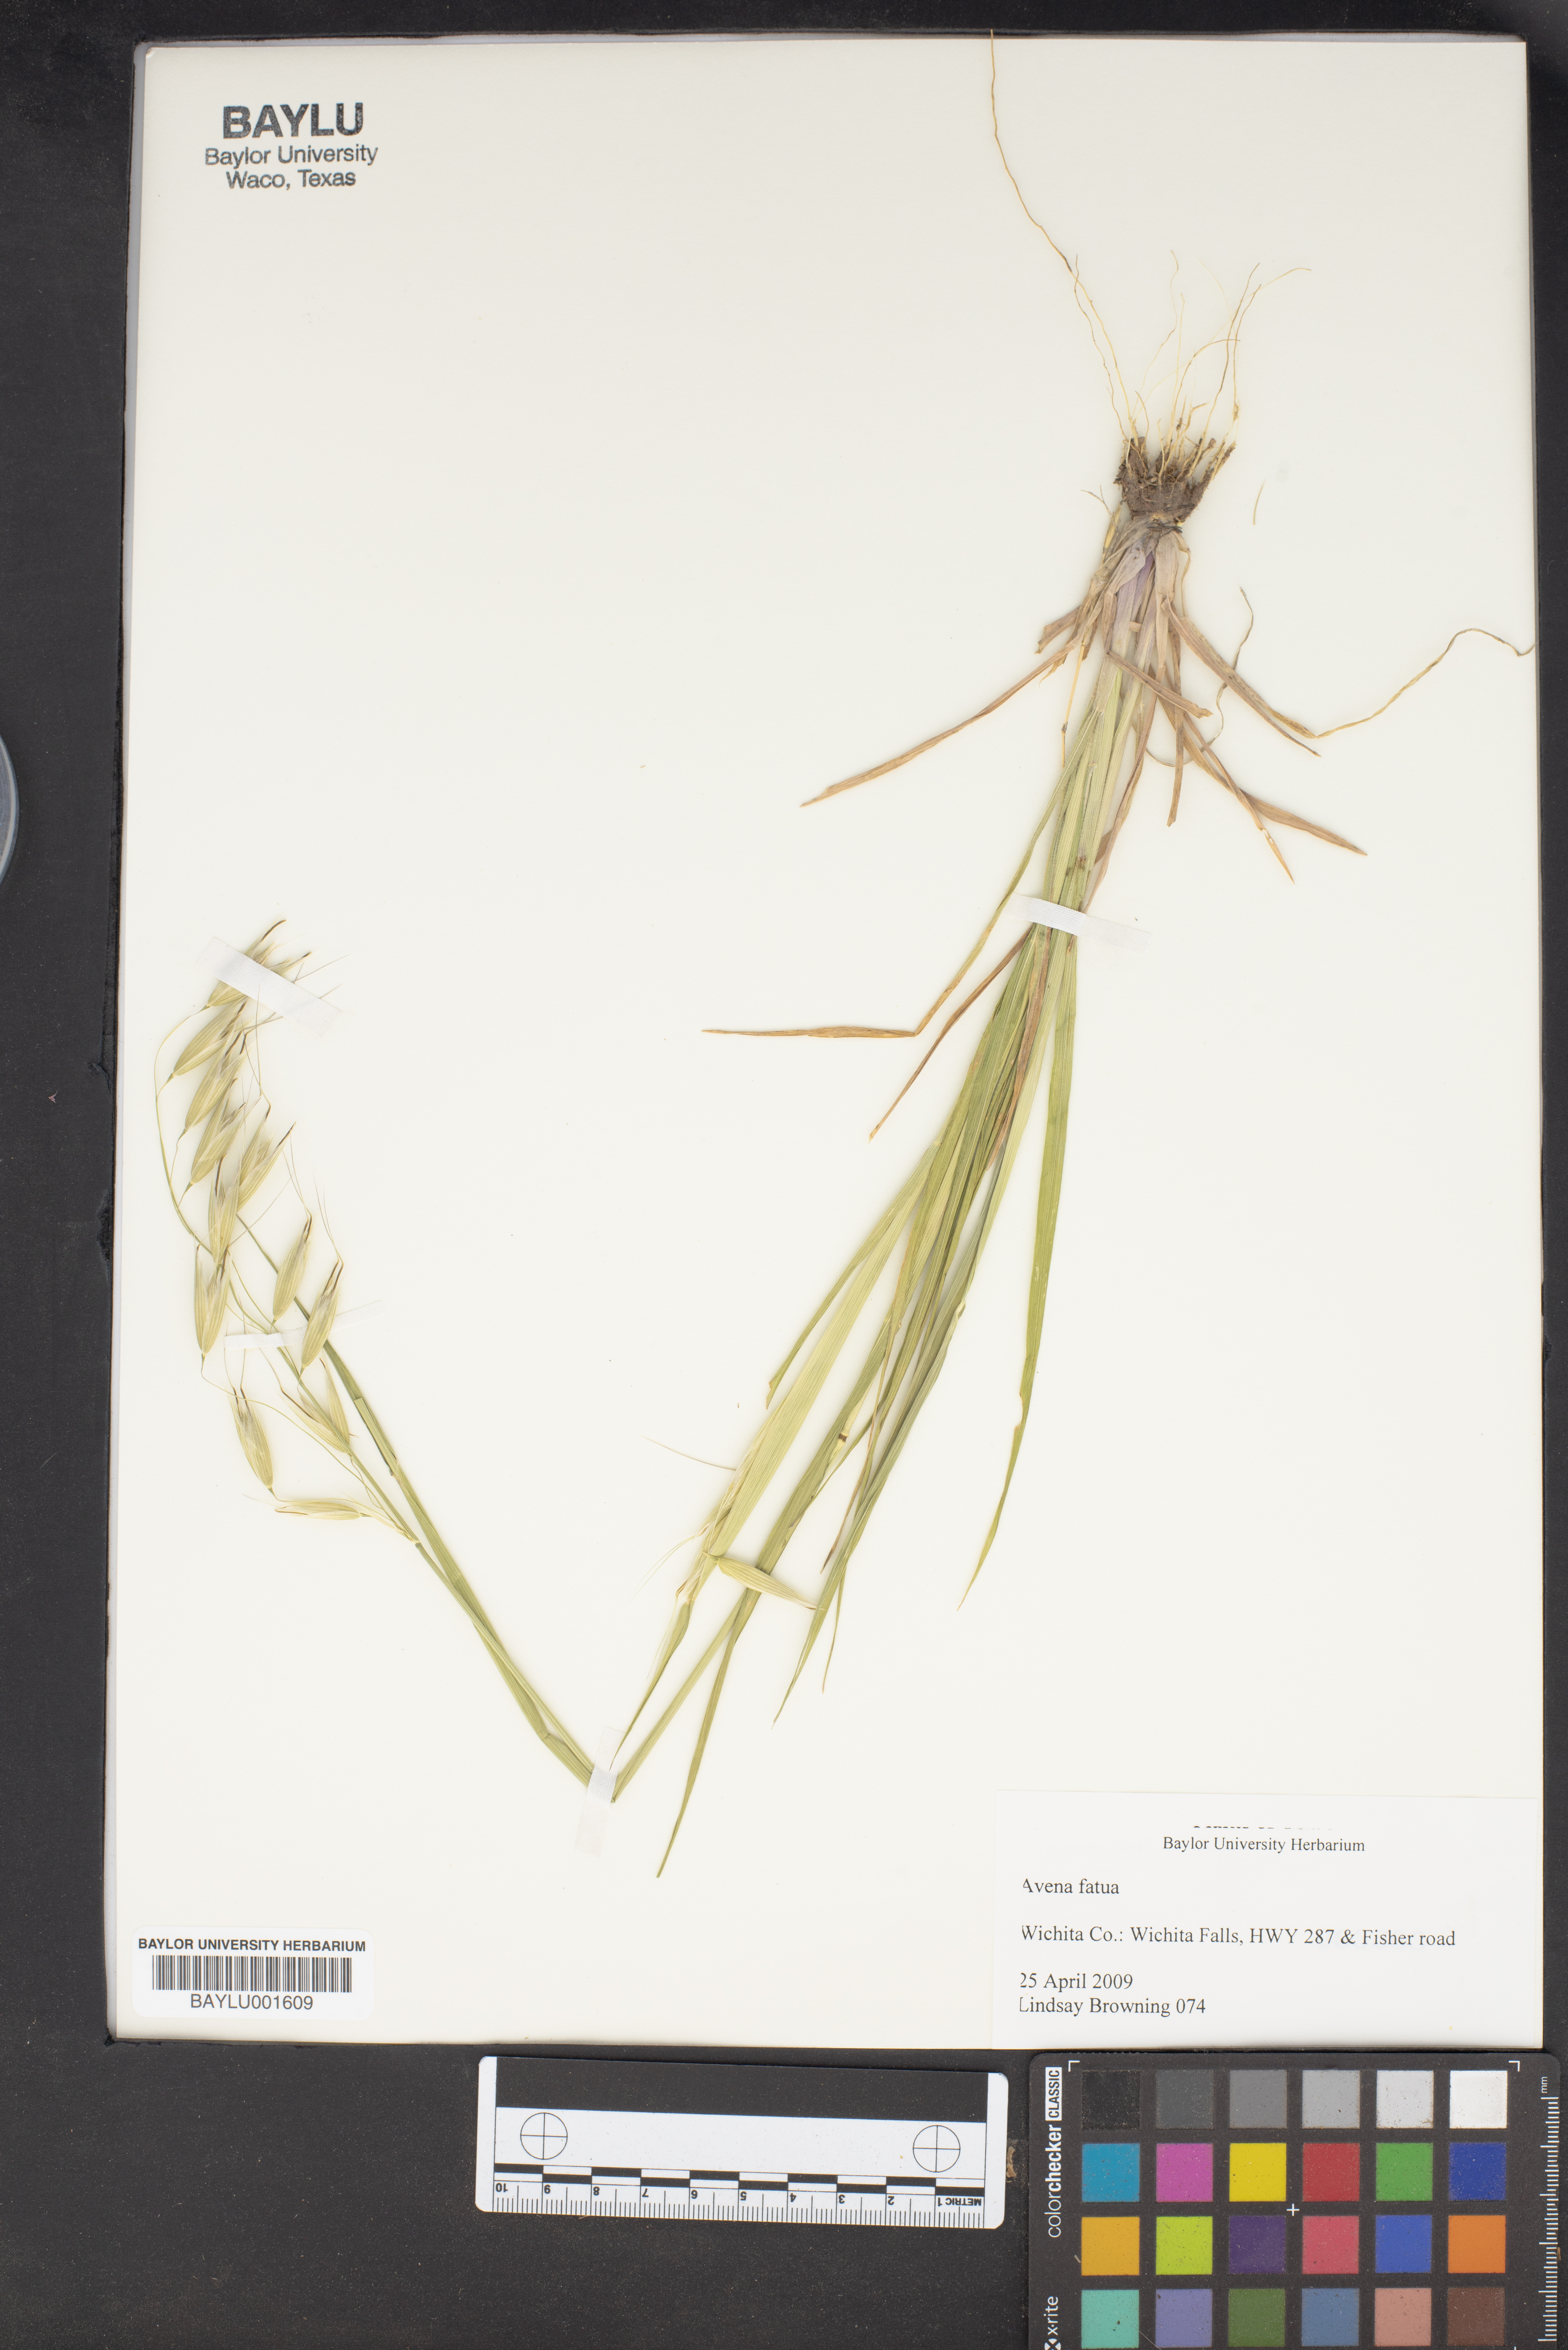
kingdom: Plantae
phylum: Tracheophyta
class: Liliopsida
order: Poales
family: Poaceae
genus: Avena
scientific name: Avena fatua
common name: Wild oat
